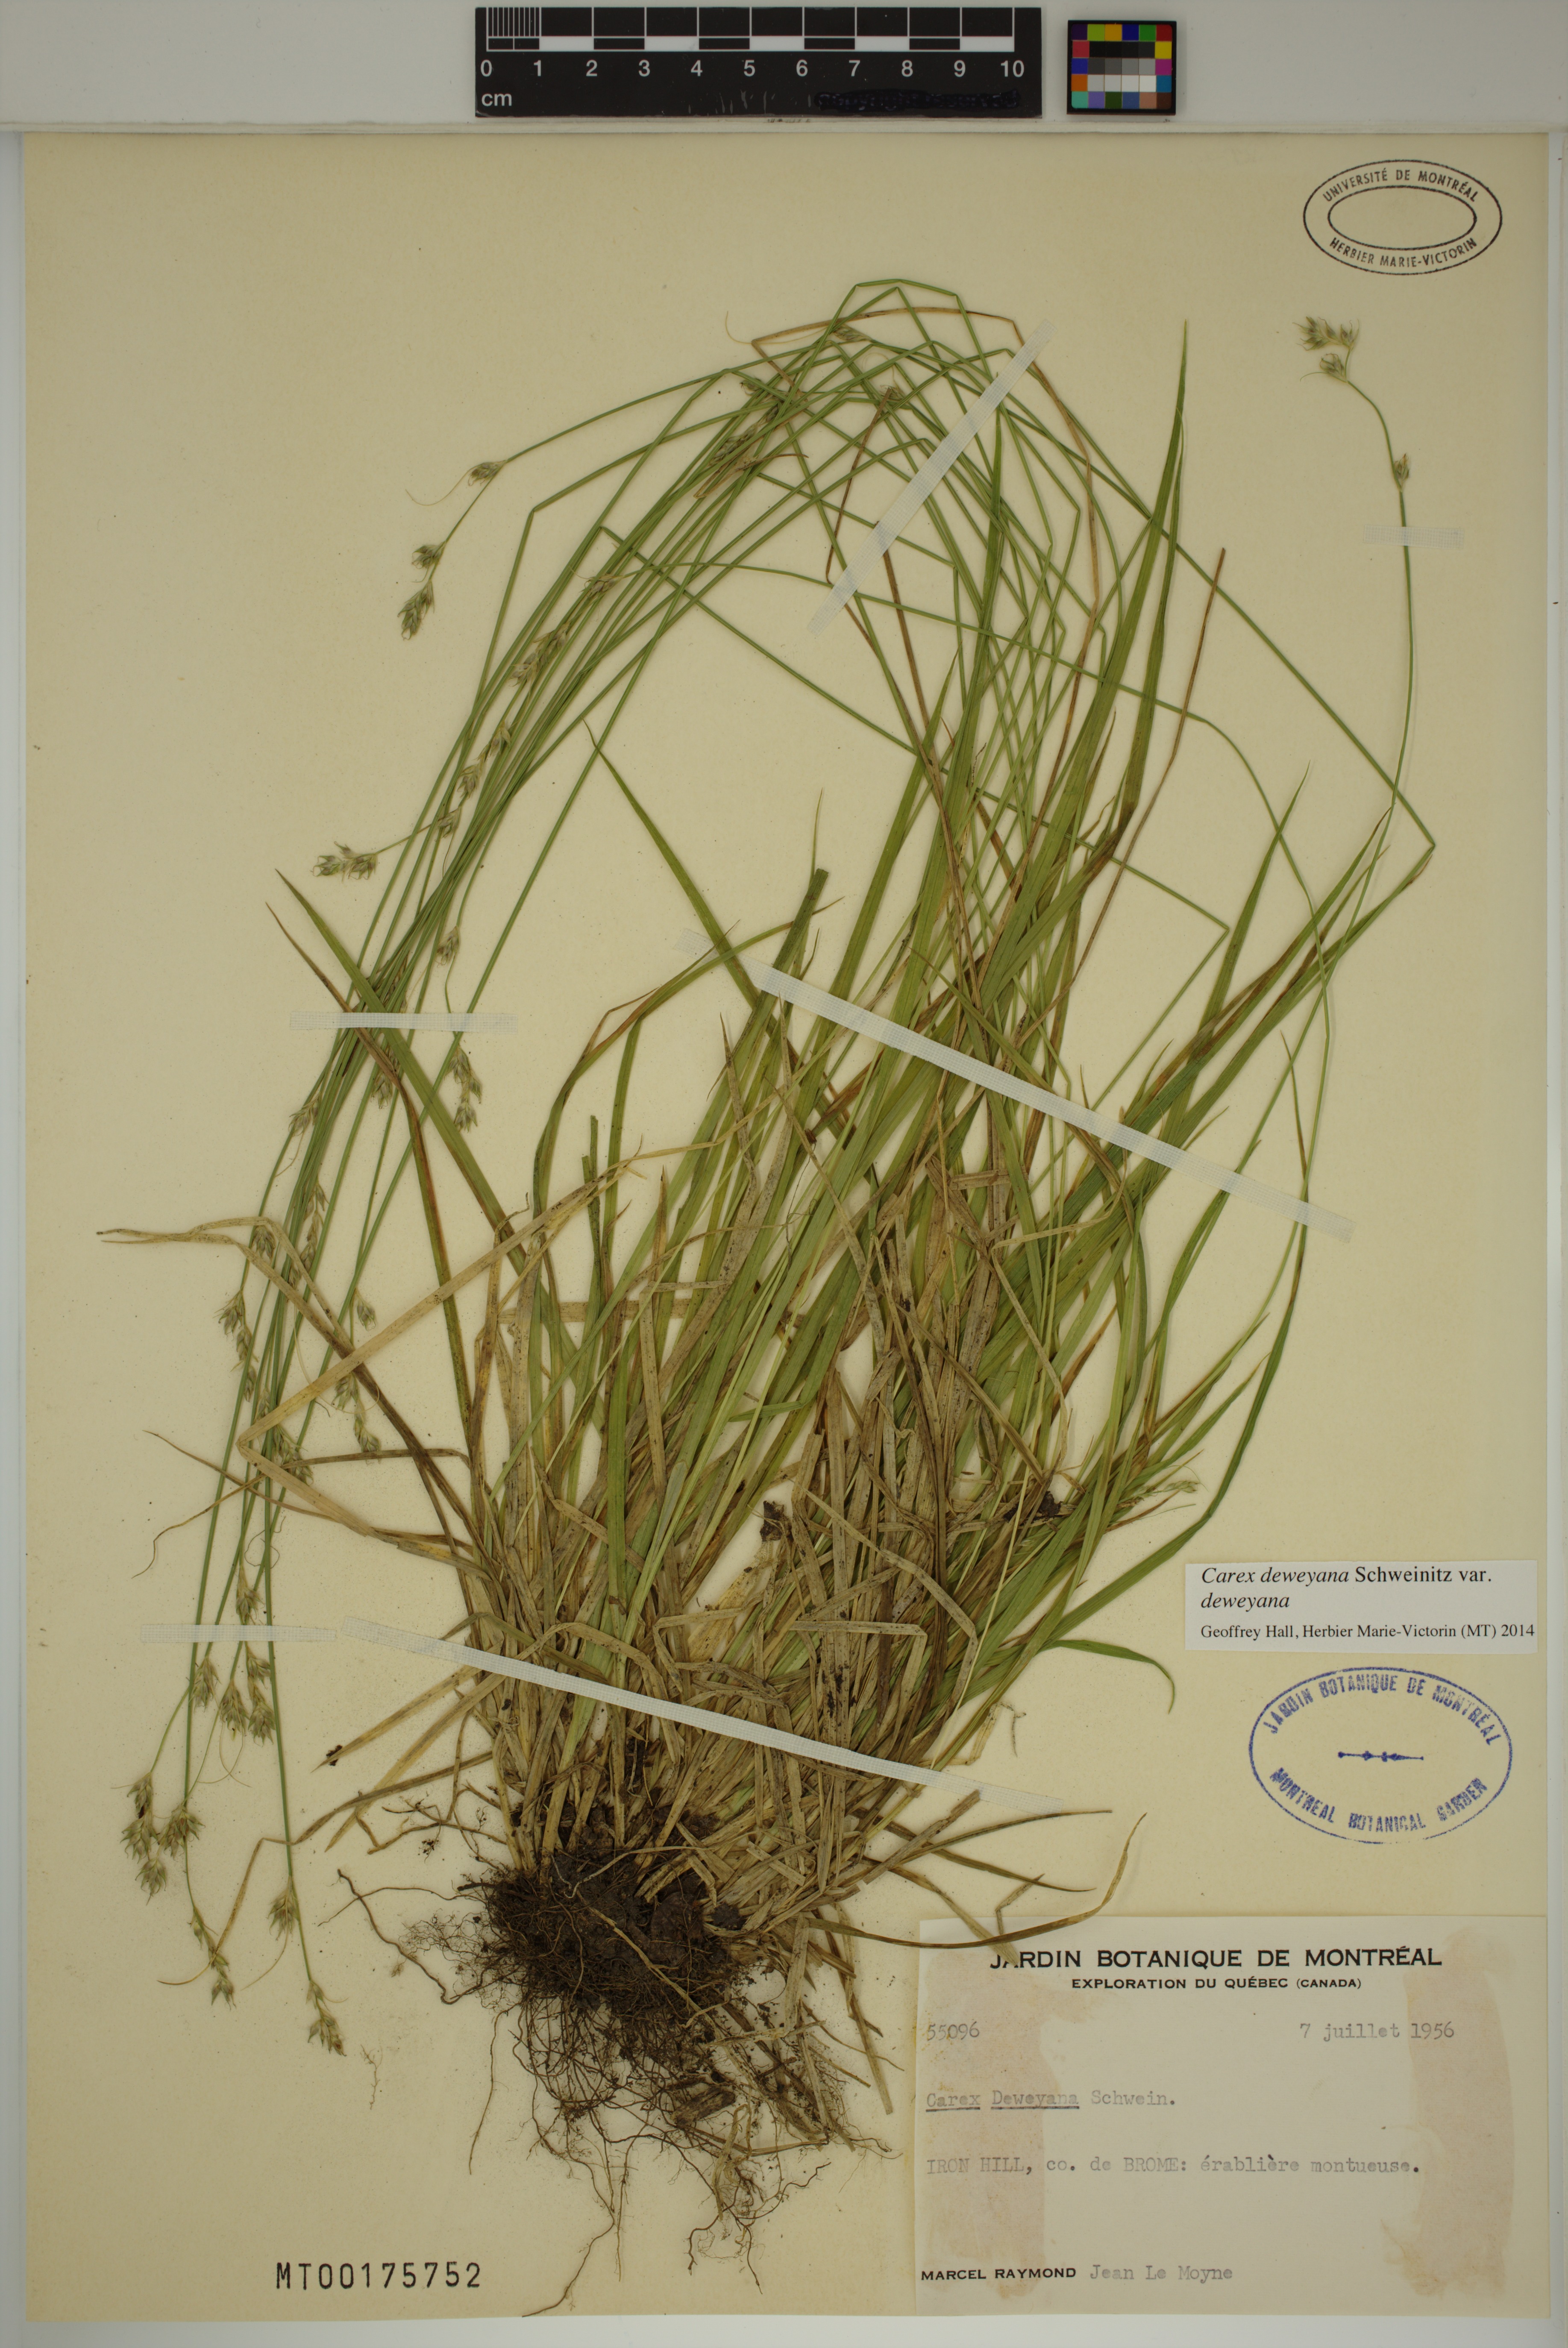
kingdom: Plantae
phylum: Tracheophyta
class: Liliopsida
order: Poales
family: Cyperaceae
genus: Carex
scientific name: Carex deweyana
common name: Dewey's sedge
